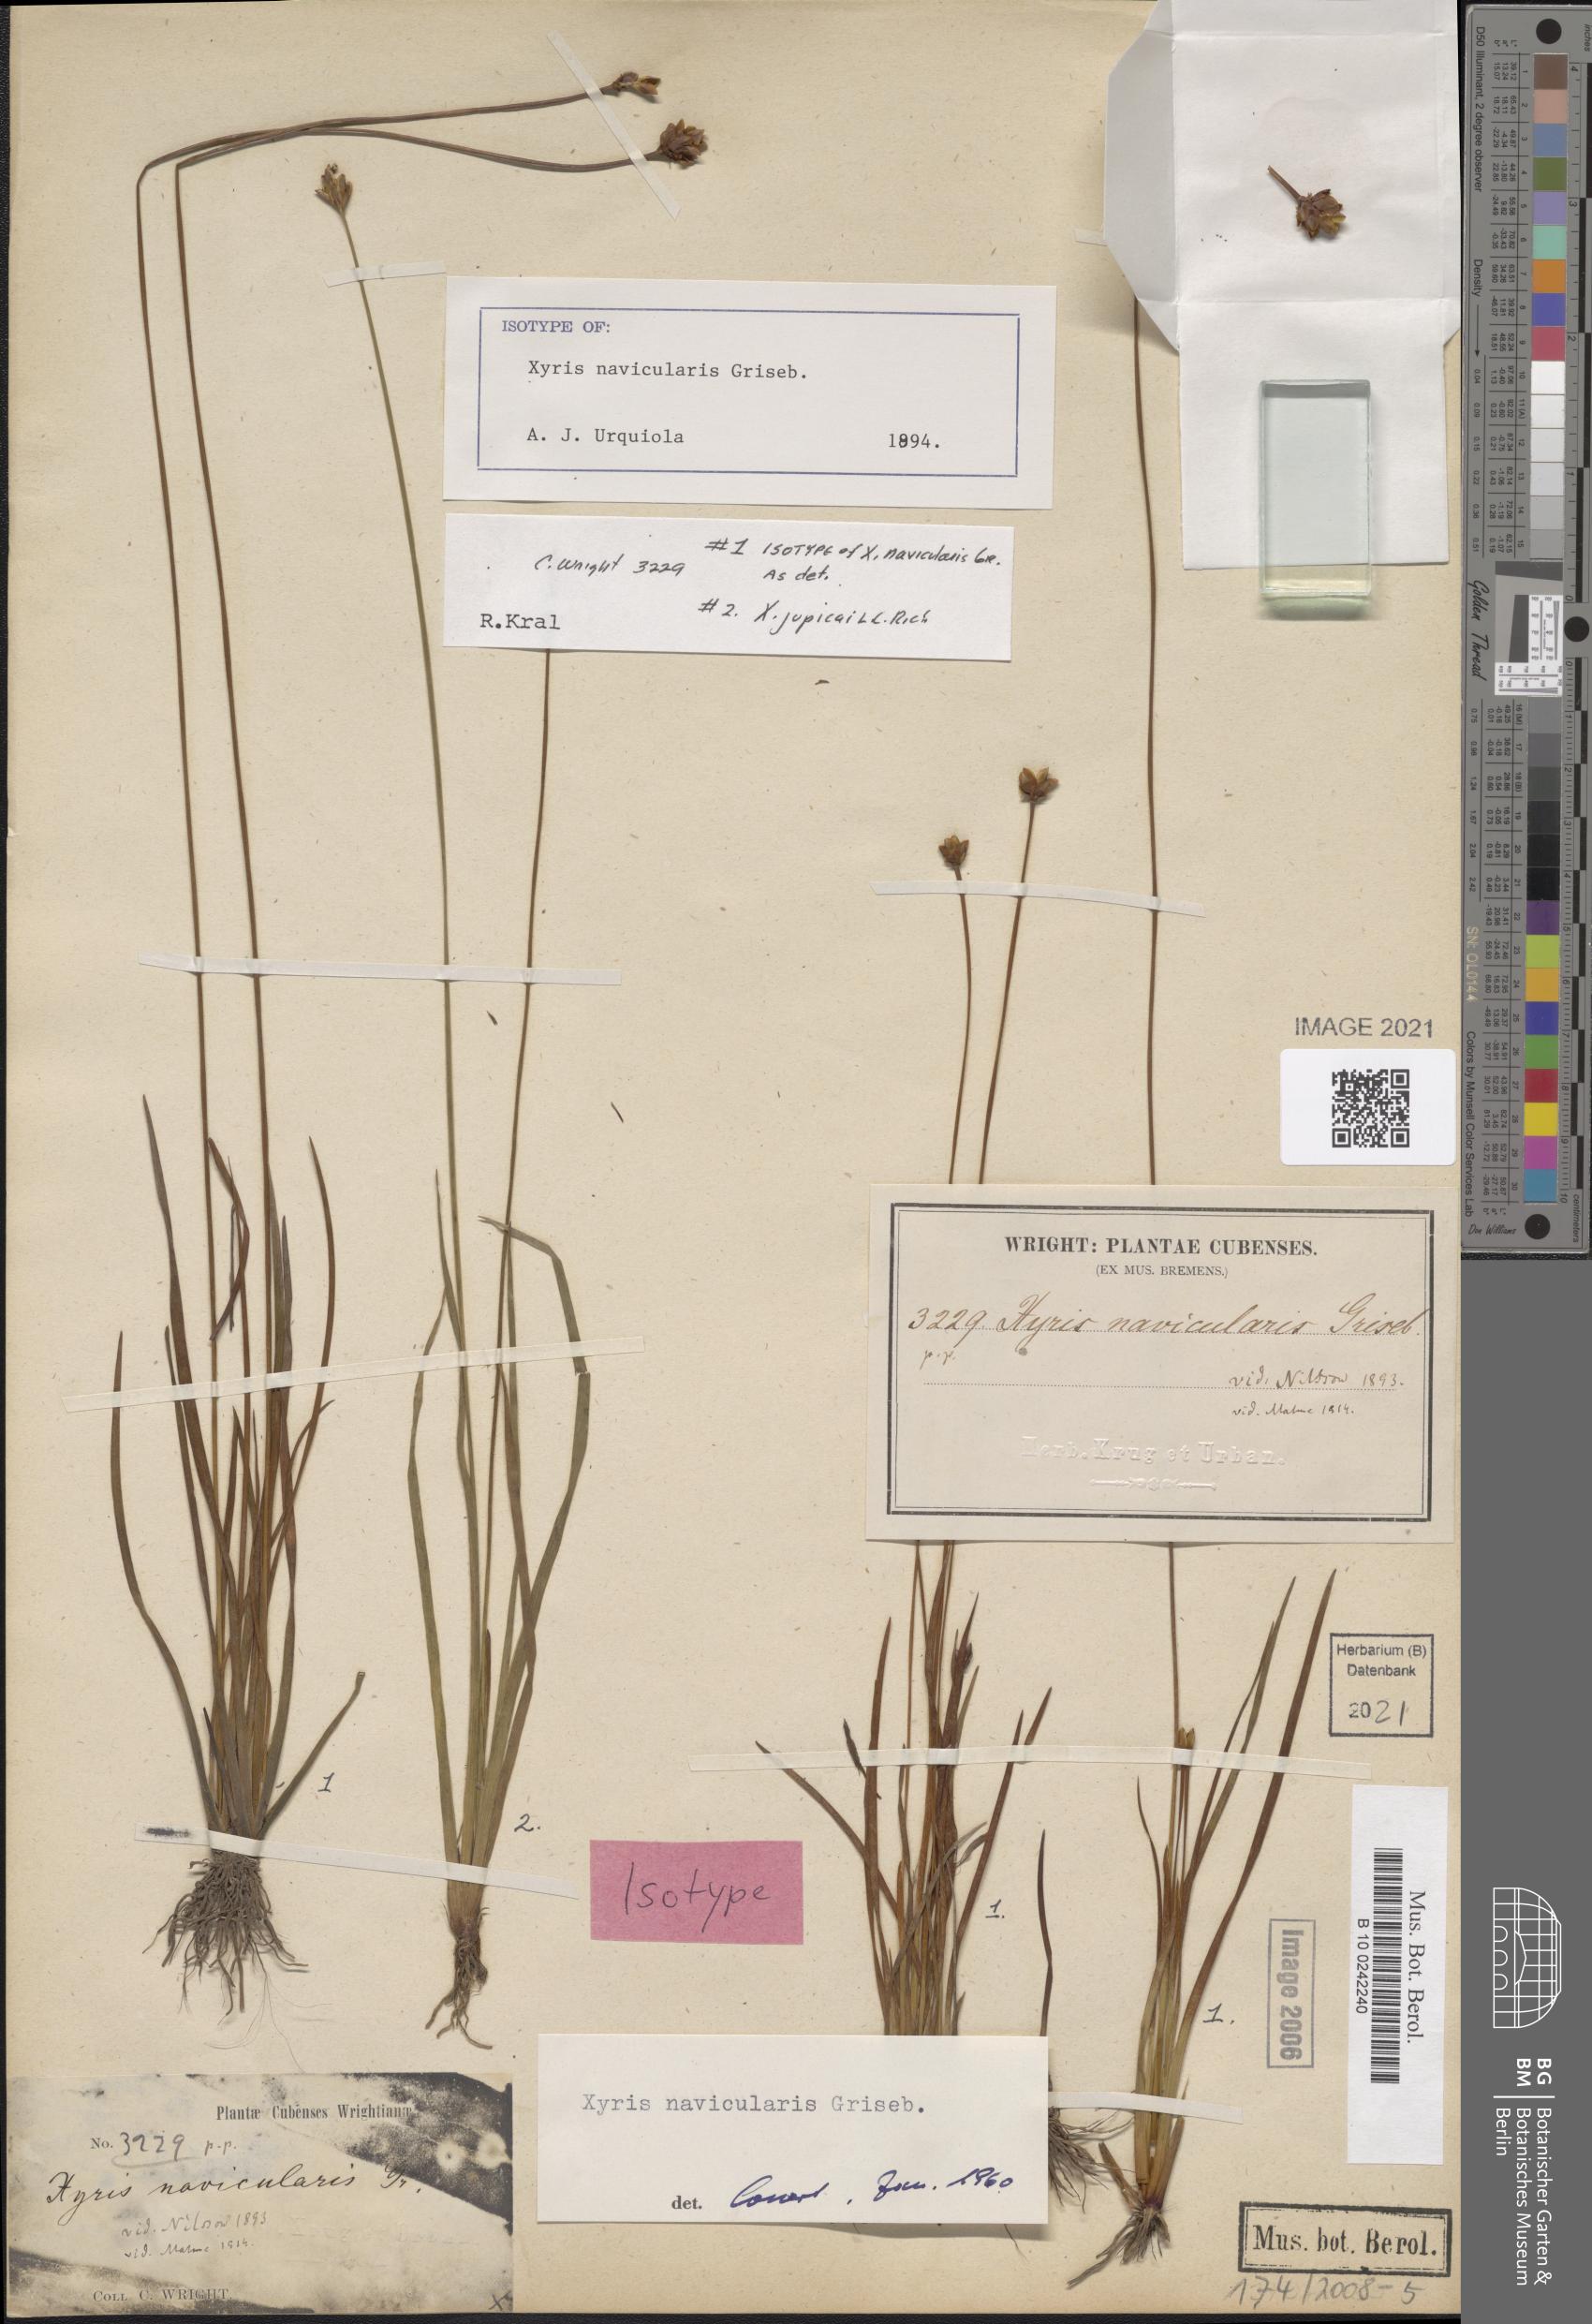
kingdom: Plantae
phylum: Tracheophyta
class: Liliopsida
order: Poales
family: Xyridaceae
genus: Xyris
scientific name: Xyris jupicai
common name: Richard's yelloweyed grass
